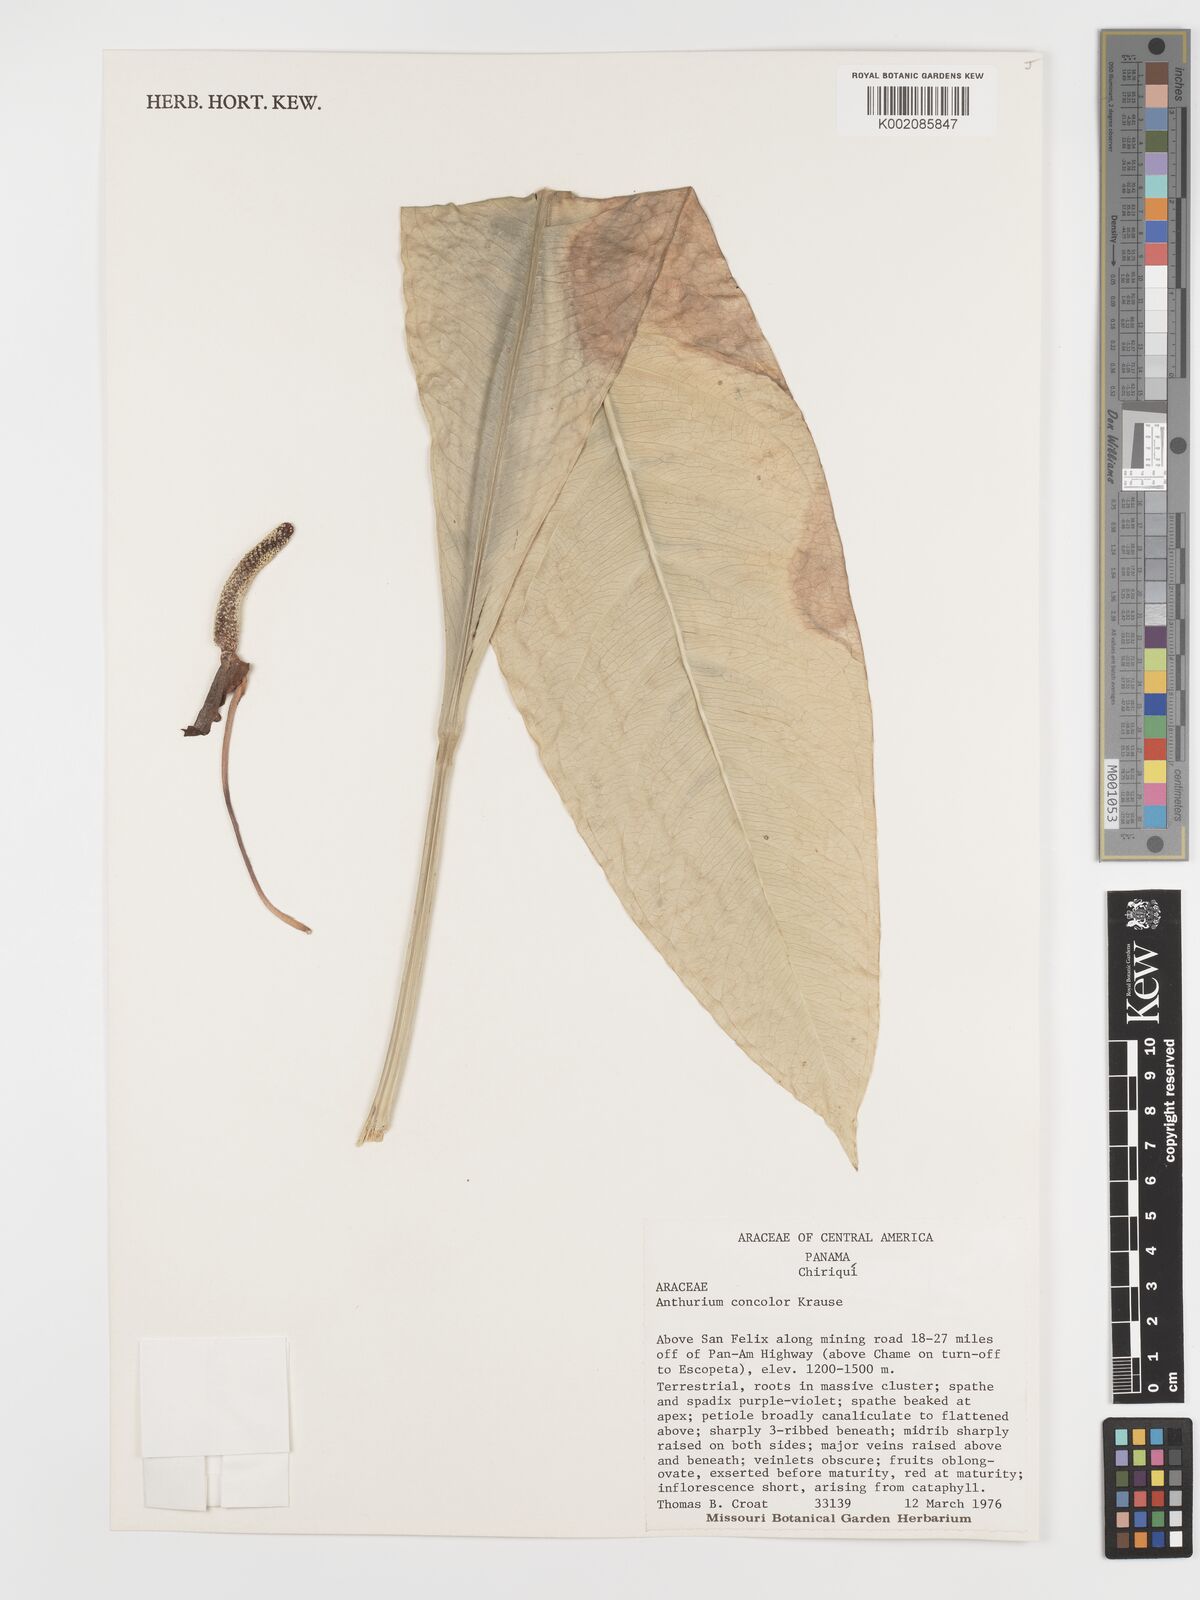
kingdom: Plantae
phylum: Tracheophyta
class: Liliopsida
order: Alismatales
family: Araceae
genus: Anthurium
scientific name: Anthurium concolor
